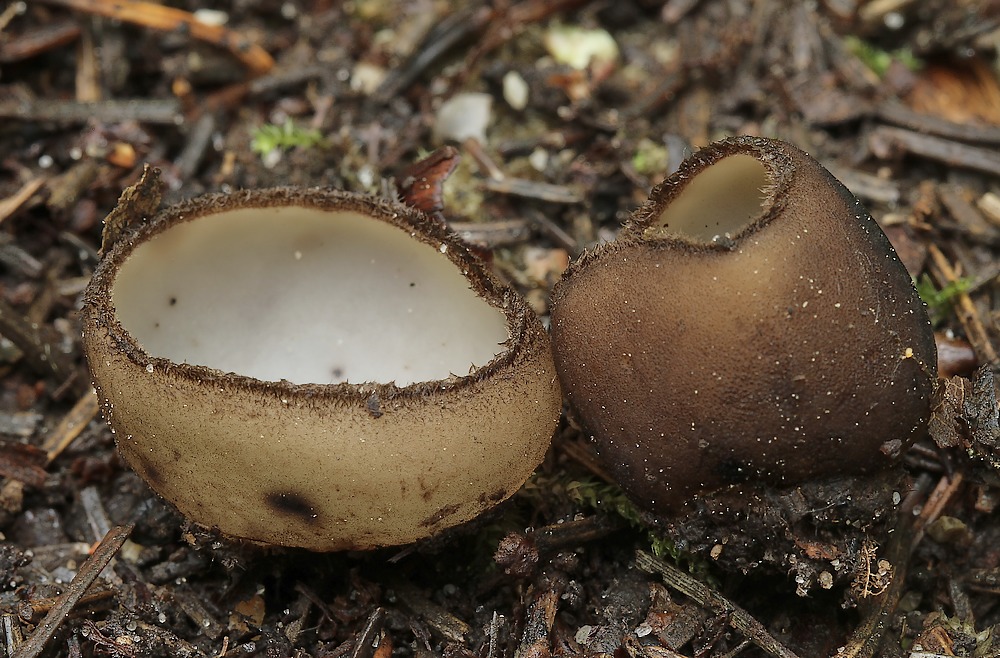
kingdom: Fungi
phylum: Ascomycota
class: Pezizomycetes
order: Pezizales
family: Pyronemataceae
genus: Humaria
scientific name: Humaria hemisphaerica
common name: halvkugleformet børstebæger
